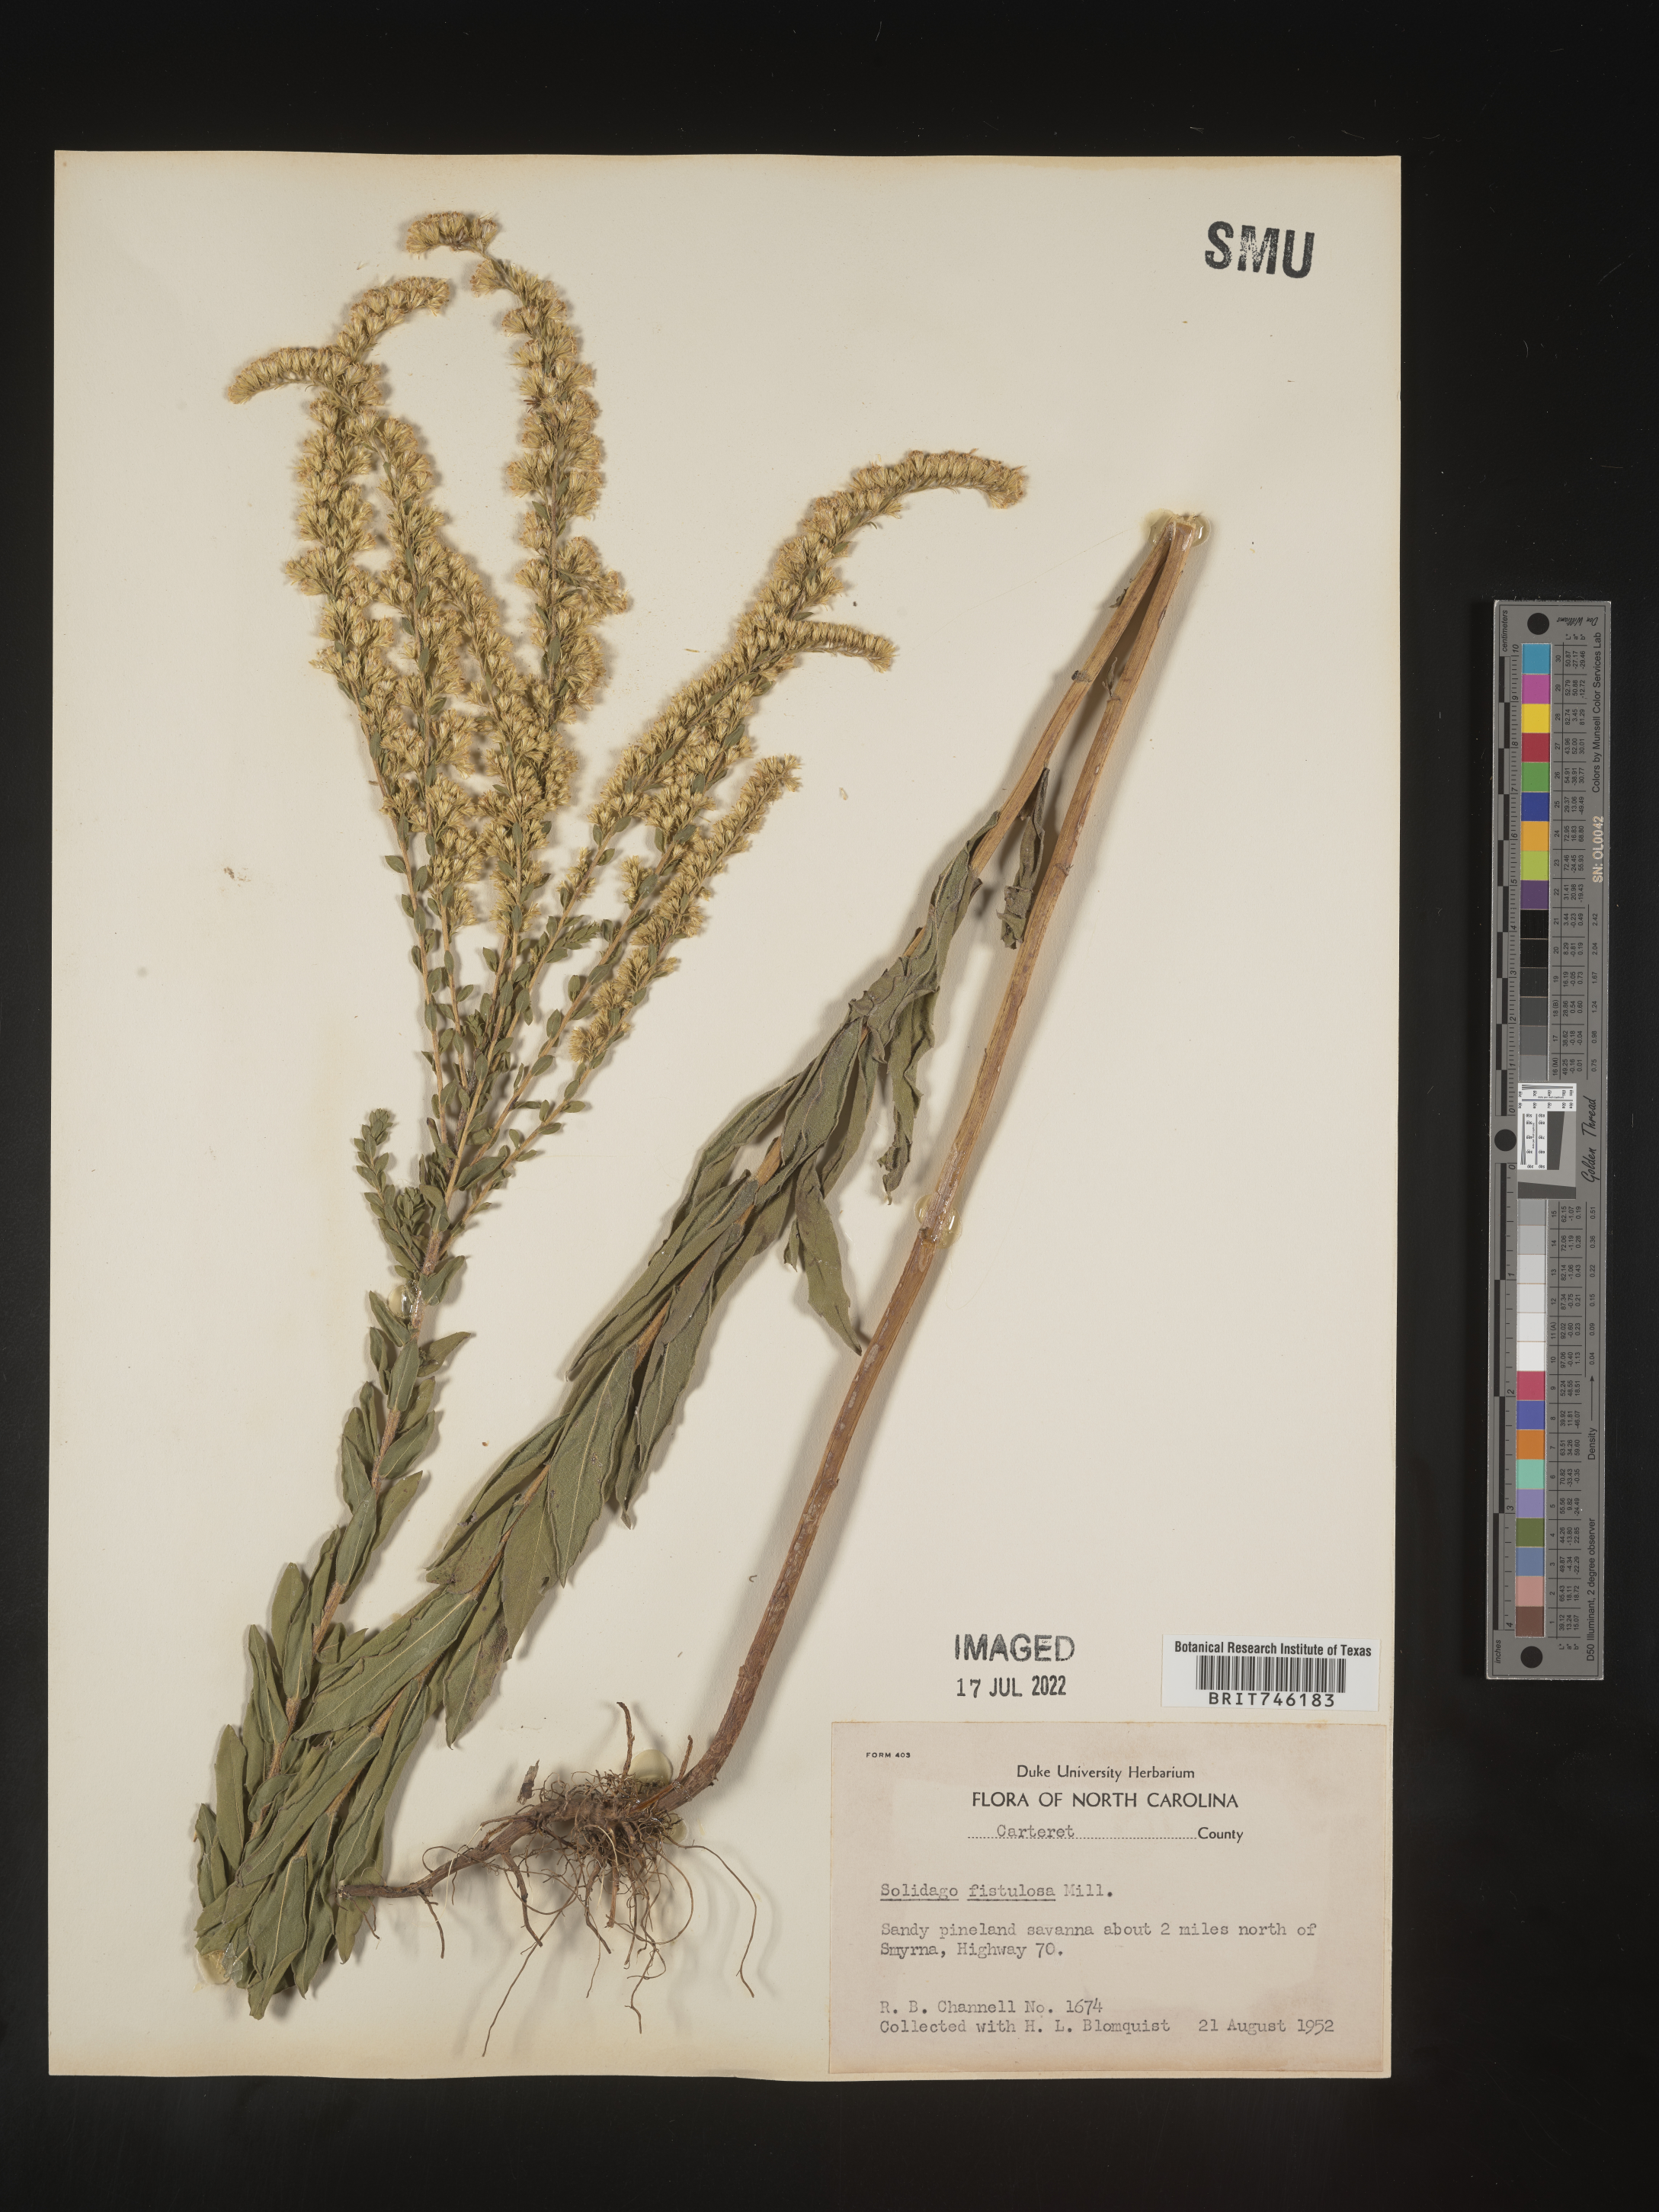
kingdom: Plantae
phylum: Tracheophyta
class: Magnoliopsida
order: Asterales
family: Asteraceae
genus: Solidago
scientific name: Solidago fistulosa
